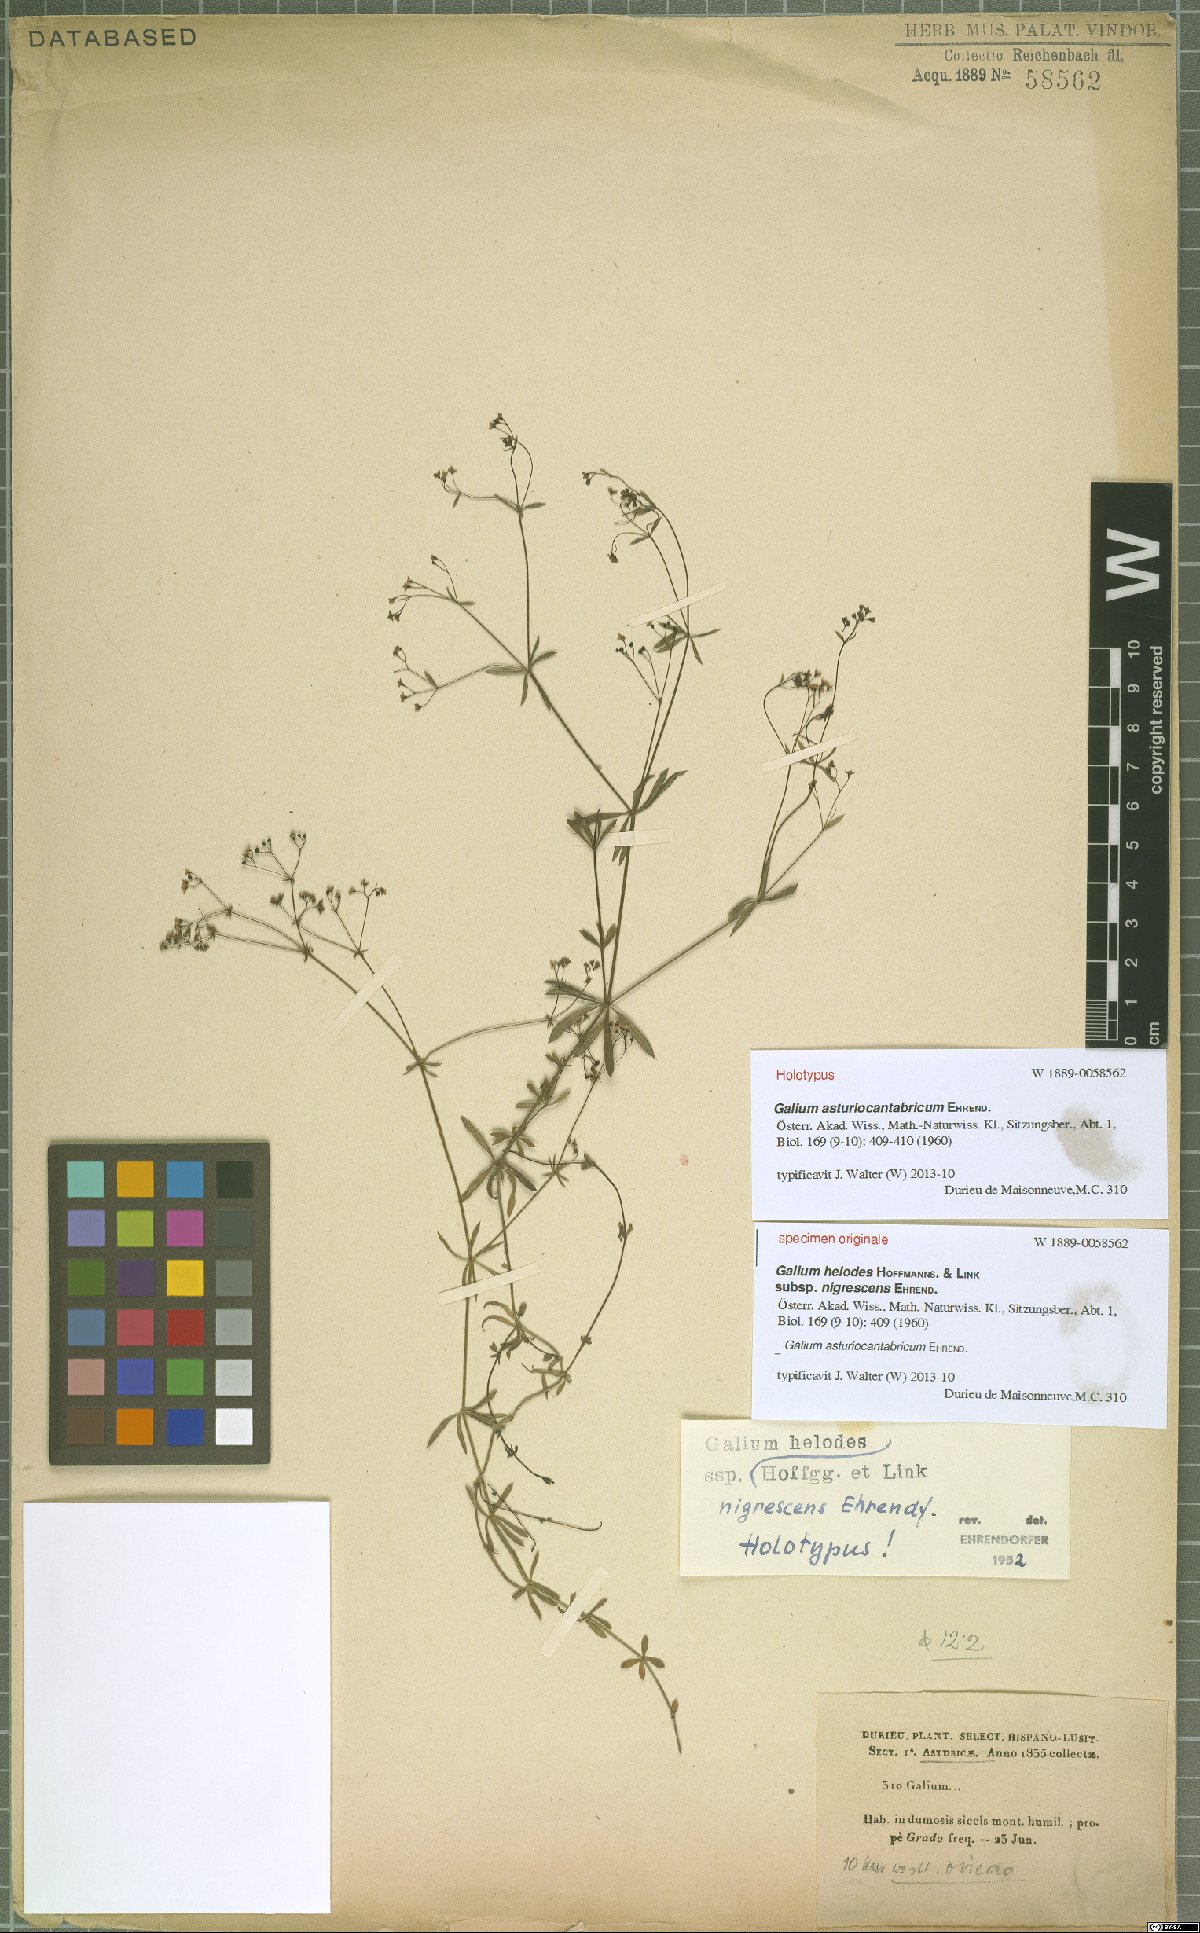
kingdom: Plantae
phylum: Tracheophyta
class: Magnoliopsida
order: Gentianales
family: Rubiaceae
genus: Galium
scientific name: Galium papillosum
